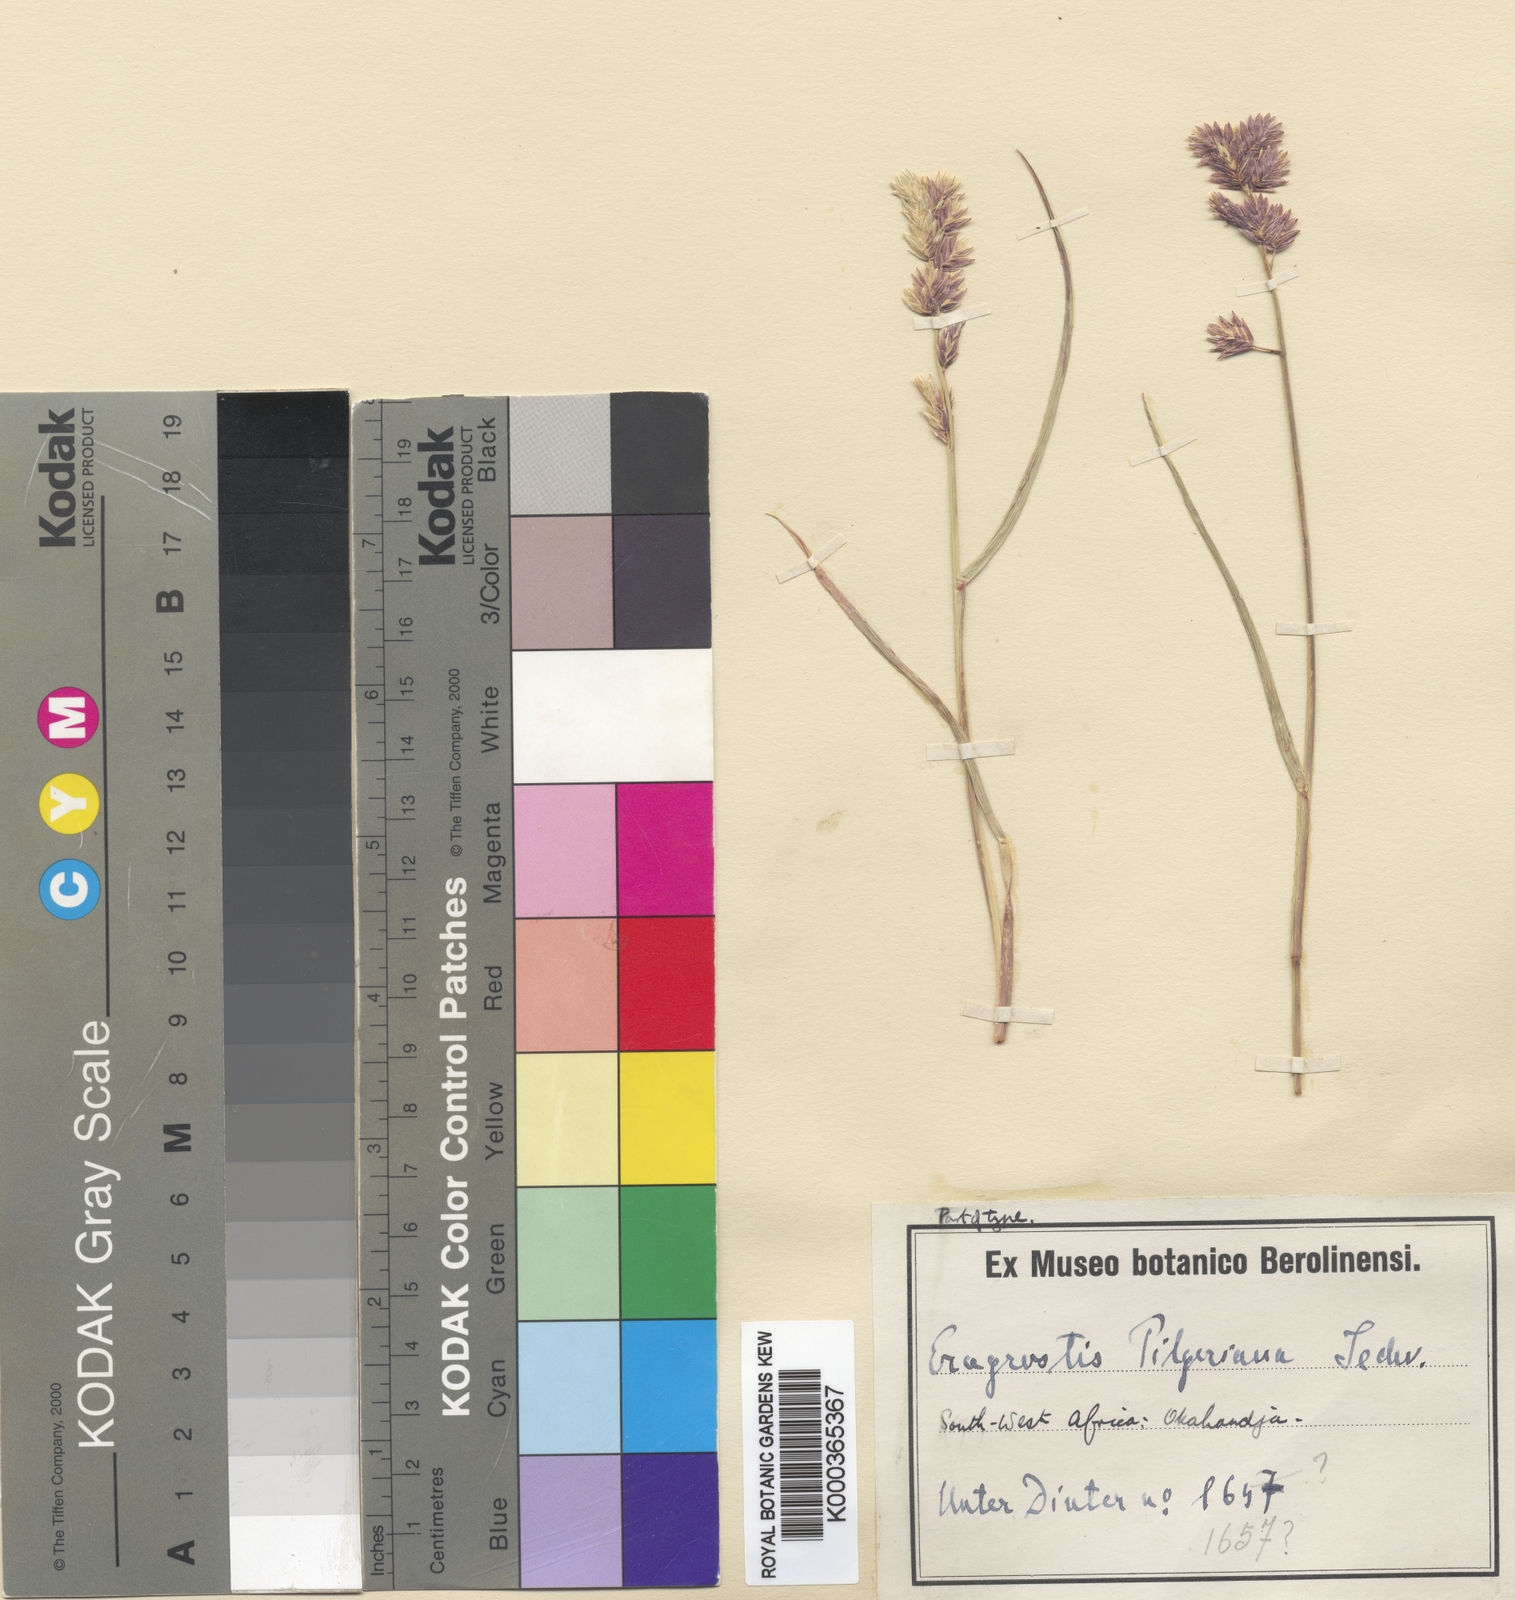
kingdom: Plantae
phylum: Tracheophyta
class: Liliopsida
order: Poales
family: Poaceae
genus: Eragrostis
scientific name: Eragrostis pilgeri
